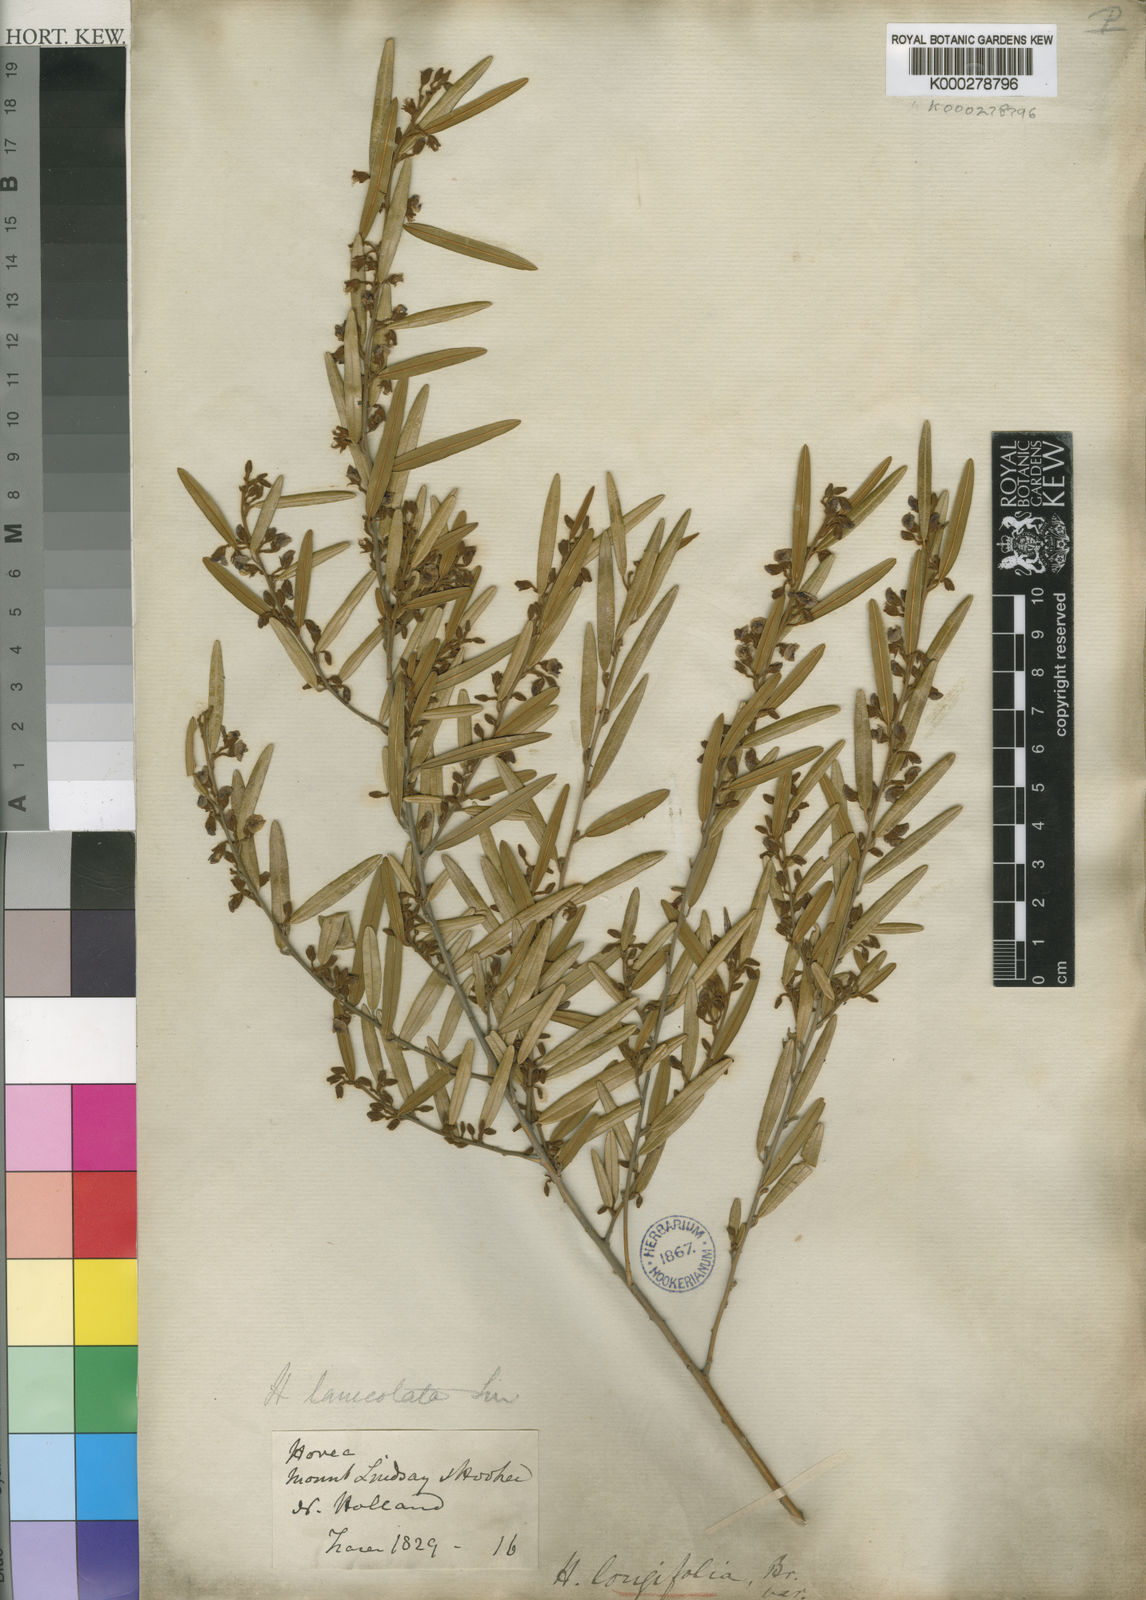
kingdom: Plantae
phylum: Tracheophyta
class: Magnoliopsida
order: Fabales
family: Fabaceae
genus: Hovea
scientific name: Hovea longifolia
